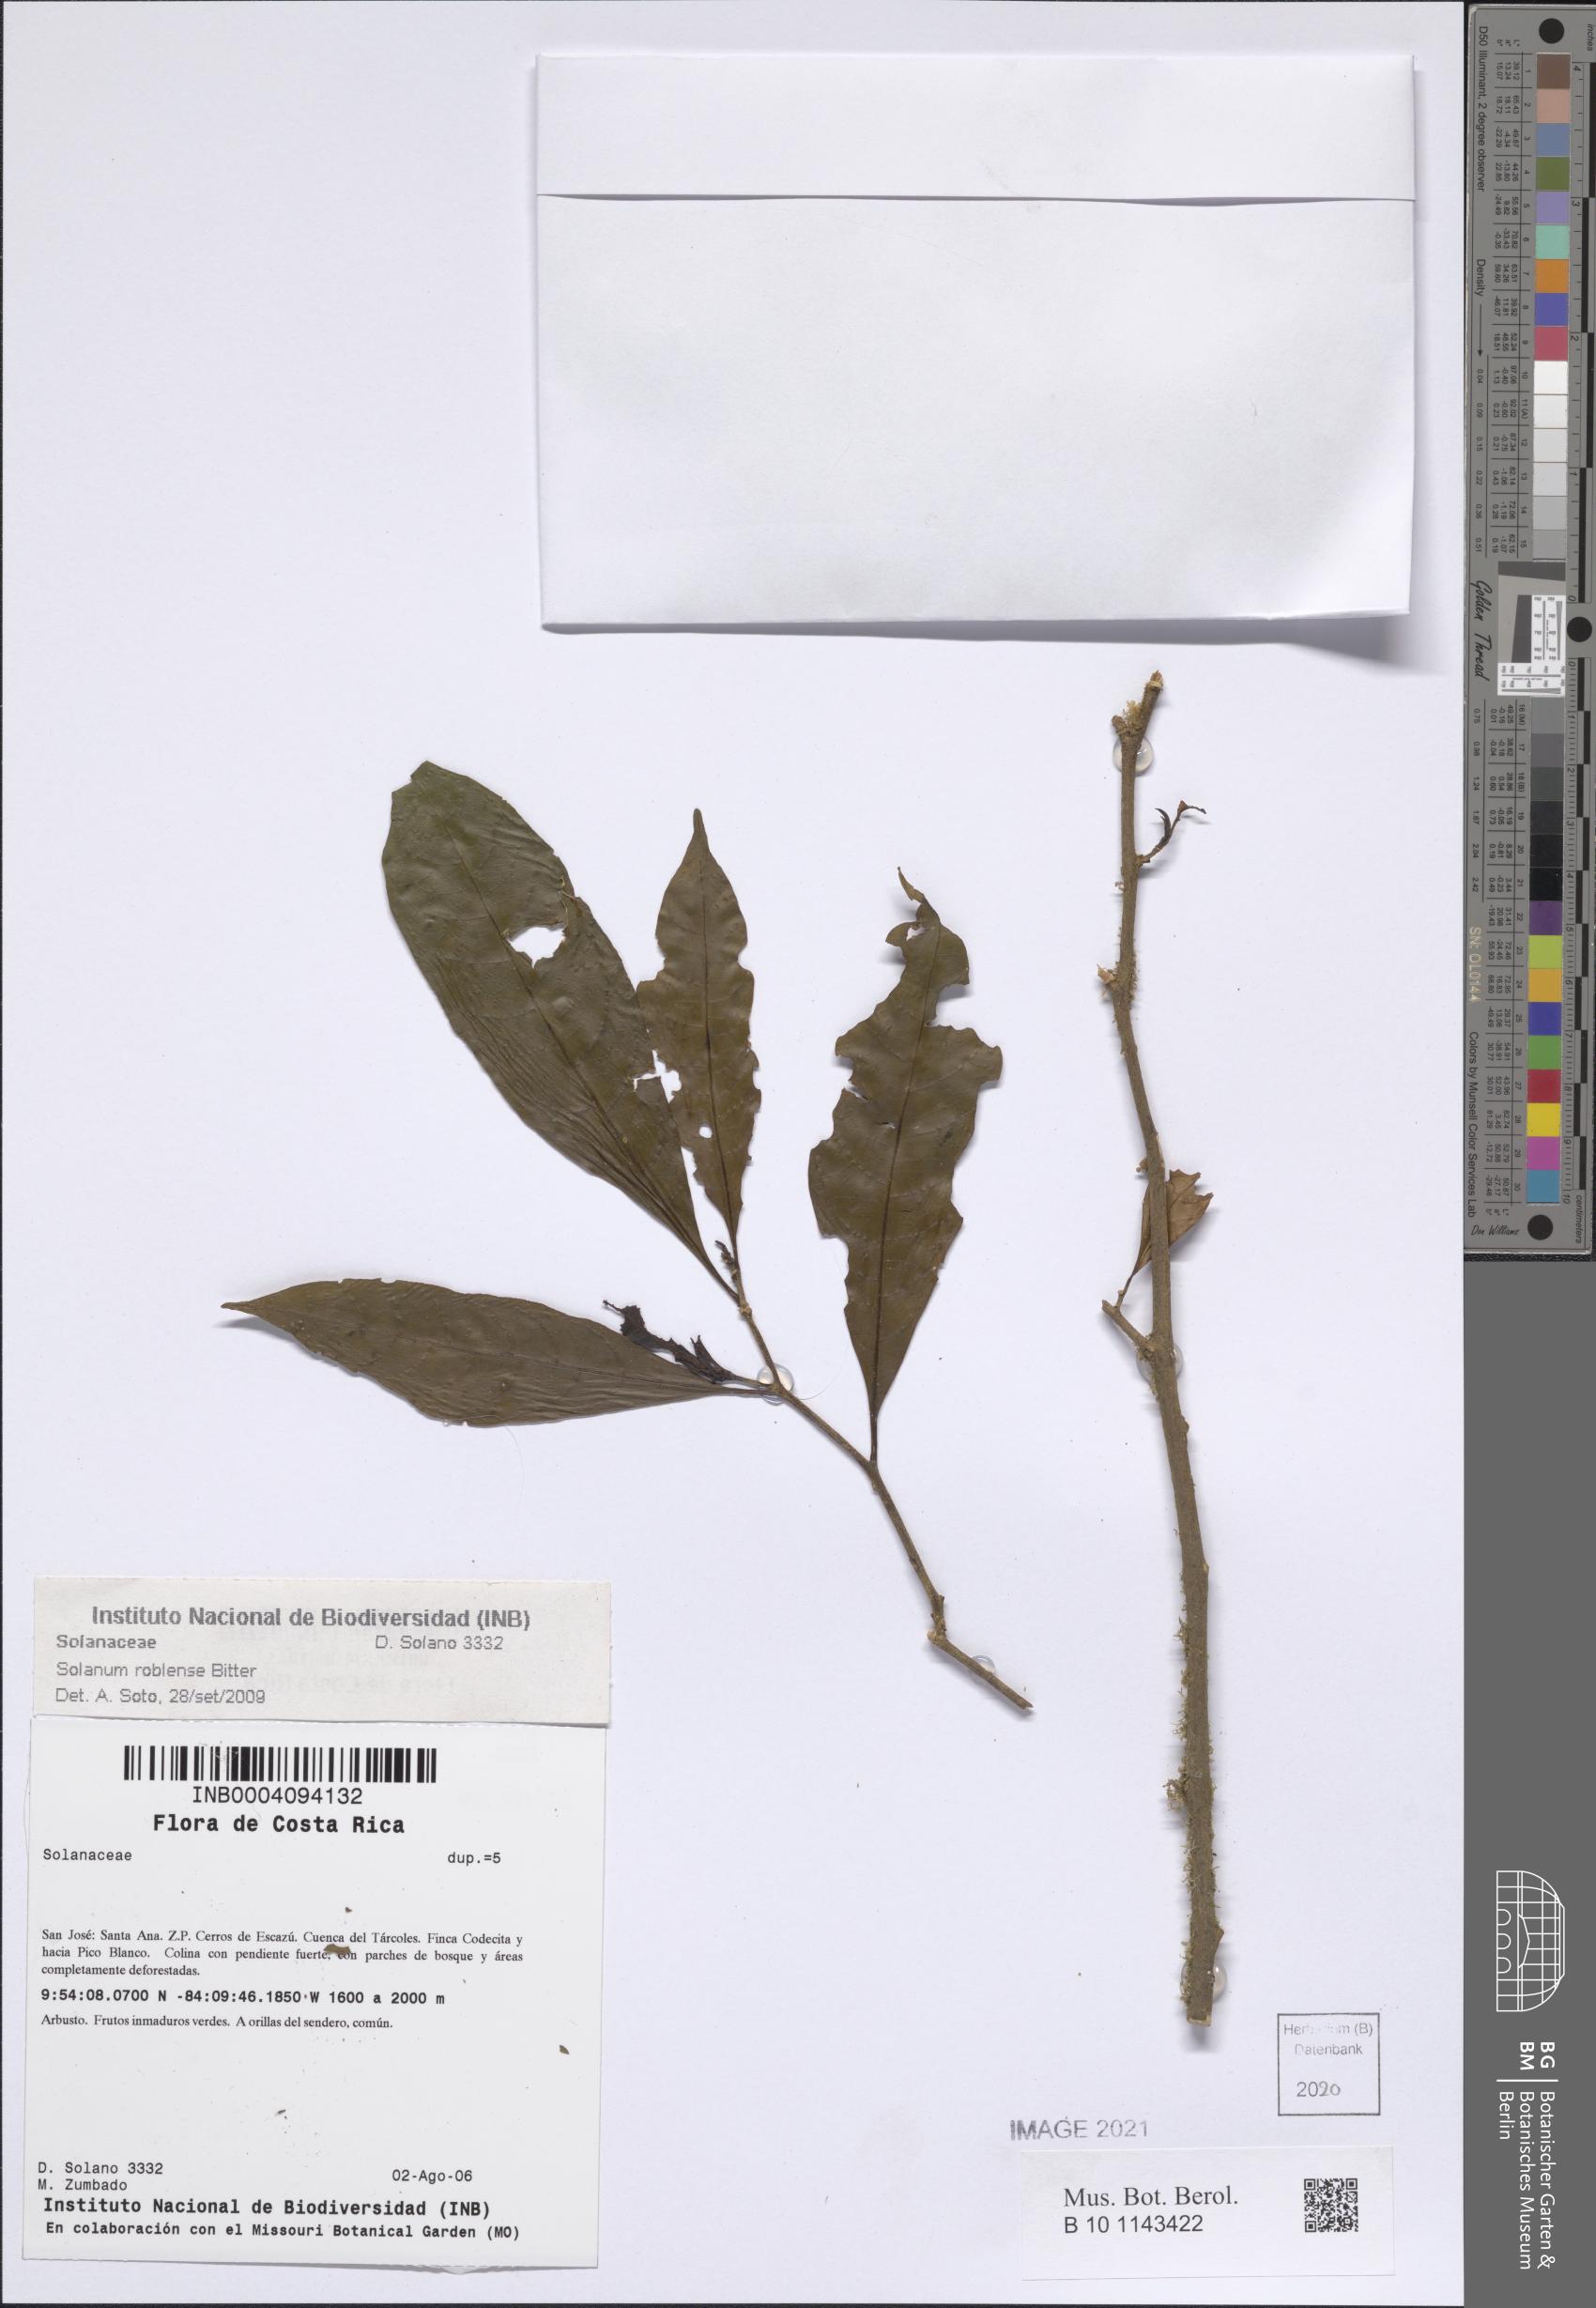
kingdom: Plantae
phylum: Tracheophyta
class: Magnoliopsida
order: Solanales
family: Solanaceae
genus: Solanum
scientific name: Solanum roblense
